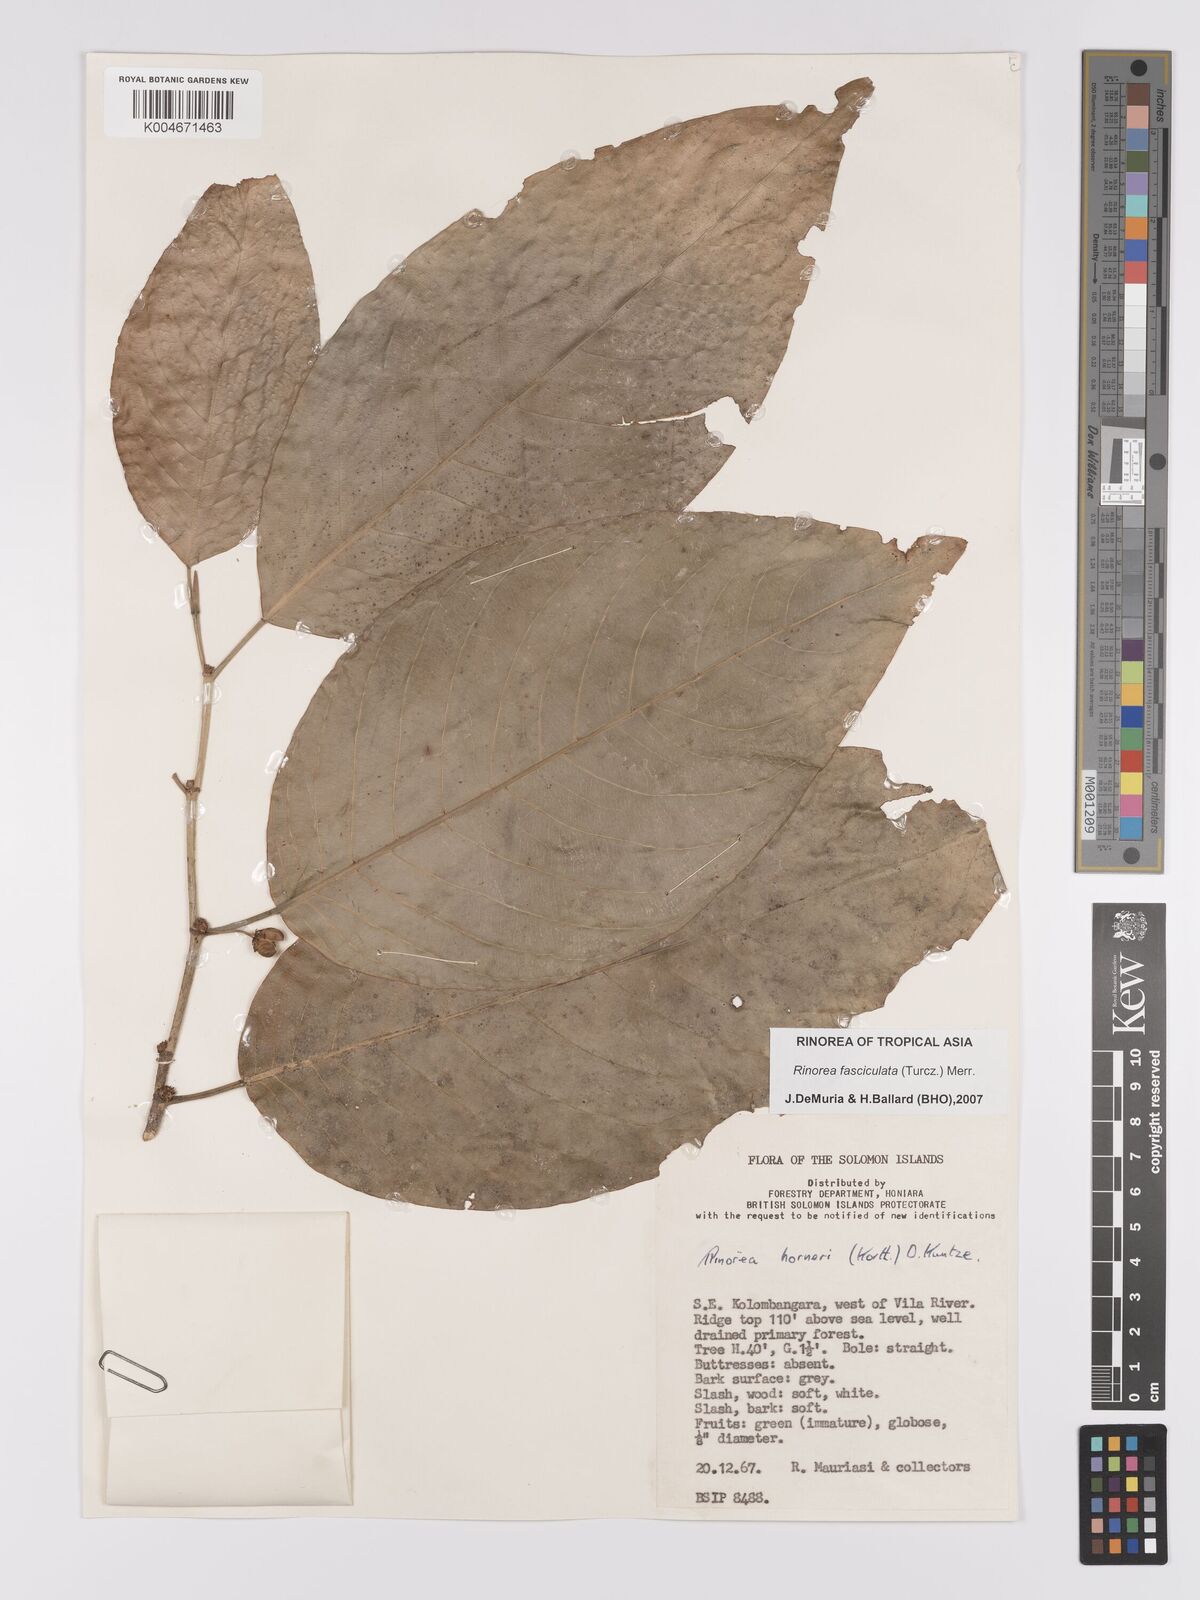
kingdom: Plantae
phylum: Tracheophyta
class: Magnoliopsida
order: Malpighiales
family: Violaceae
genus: Rinorea
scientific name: Rinorea bengalensis
